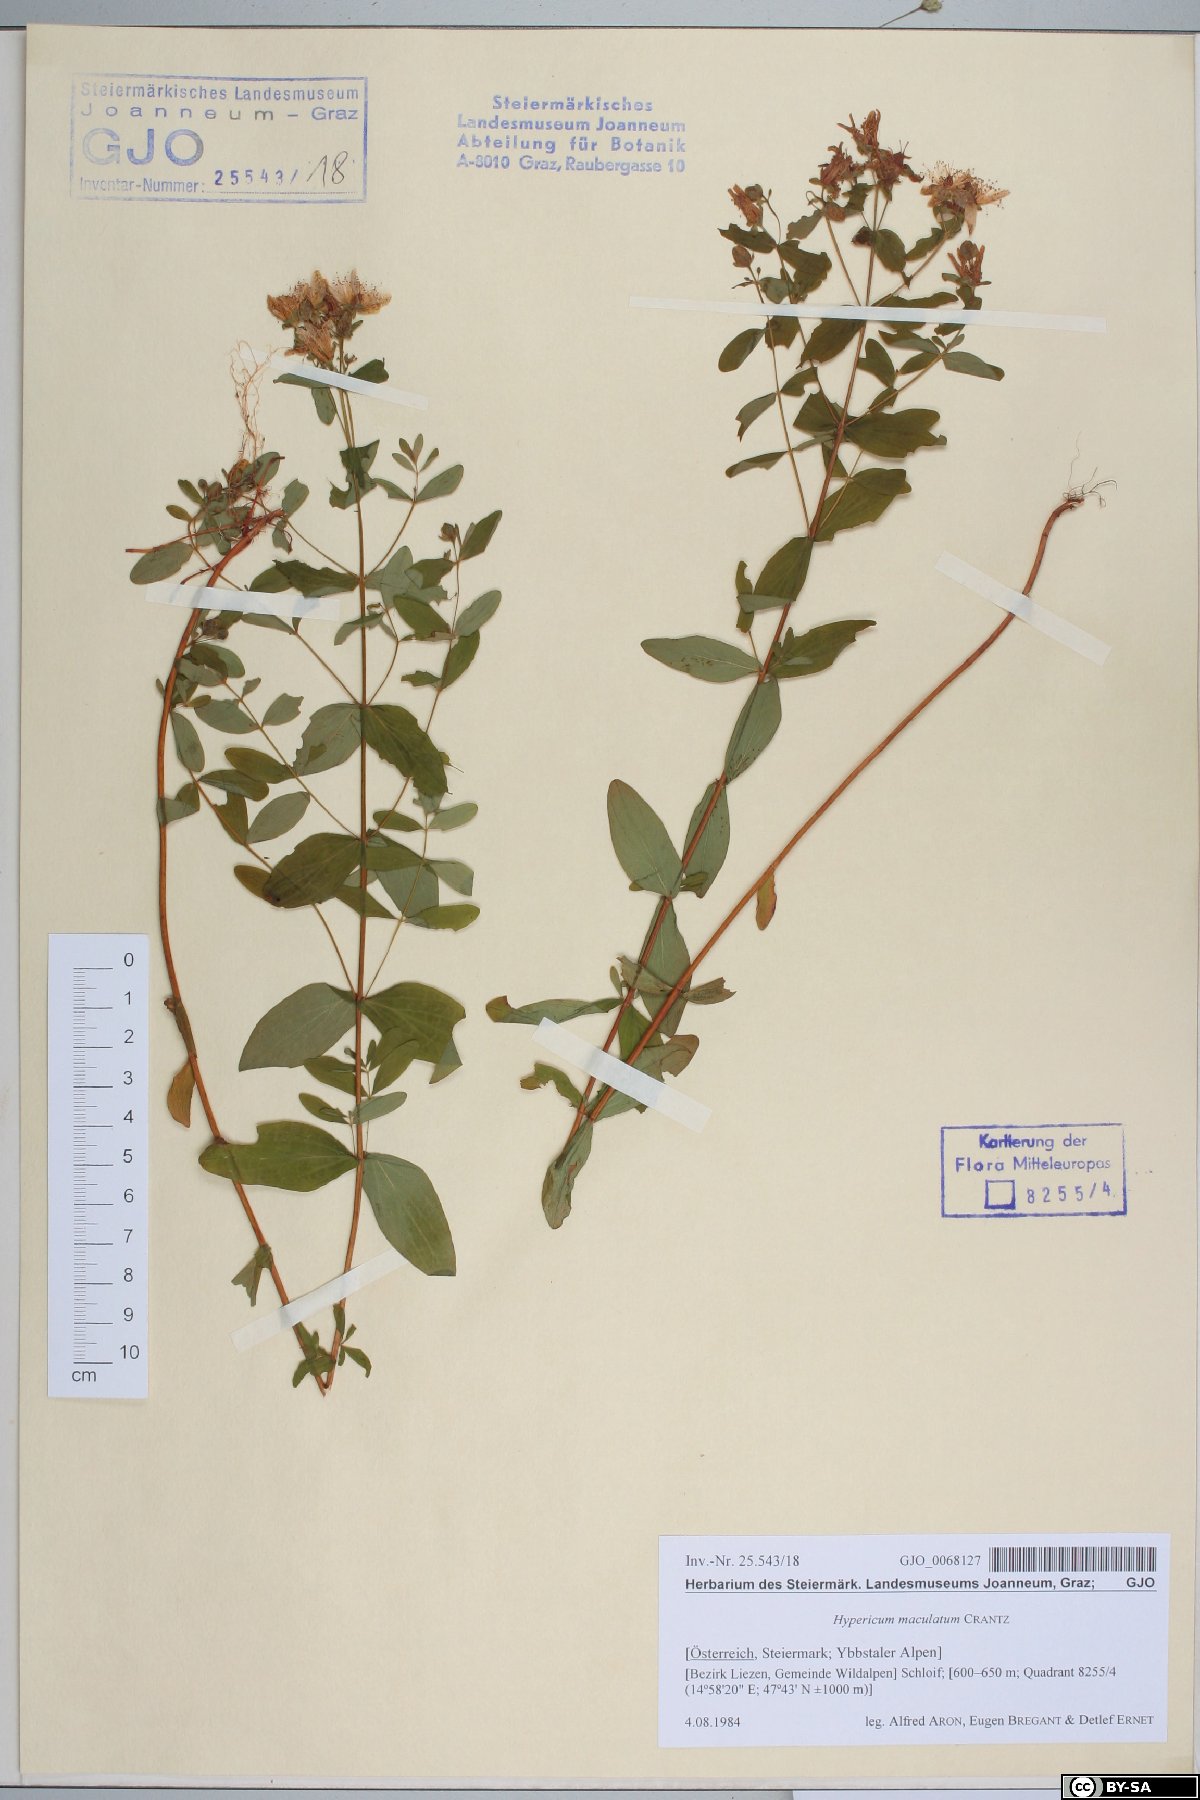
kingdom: Plantae
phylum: Tracheophyta
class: Magnoliopsida
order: Malpighiales
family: Hypericaceae
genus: Hypericum
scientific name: Hypericum maculatum
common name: Imperforate st. john's-wort
